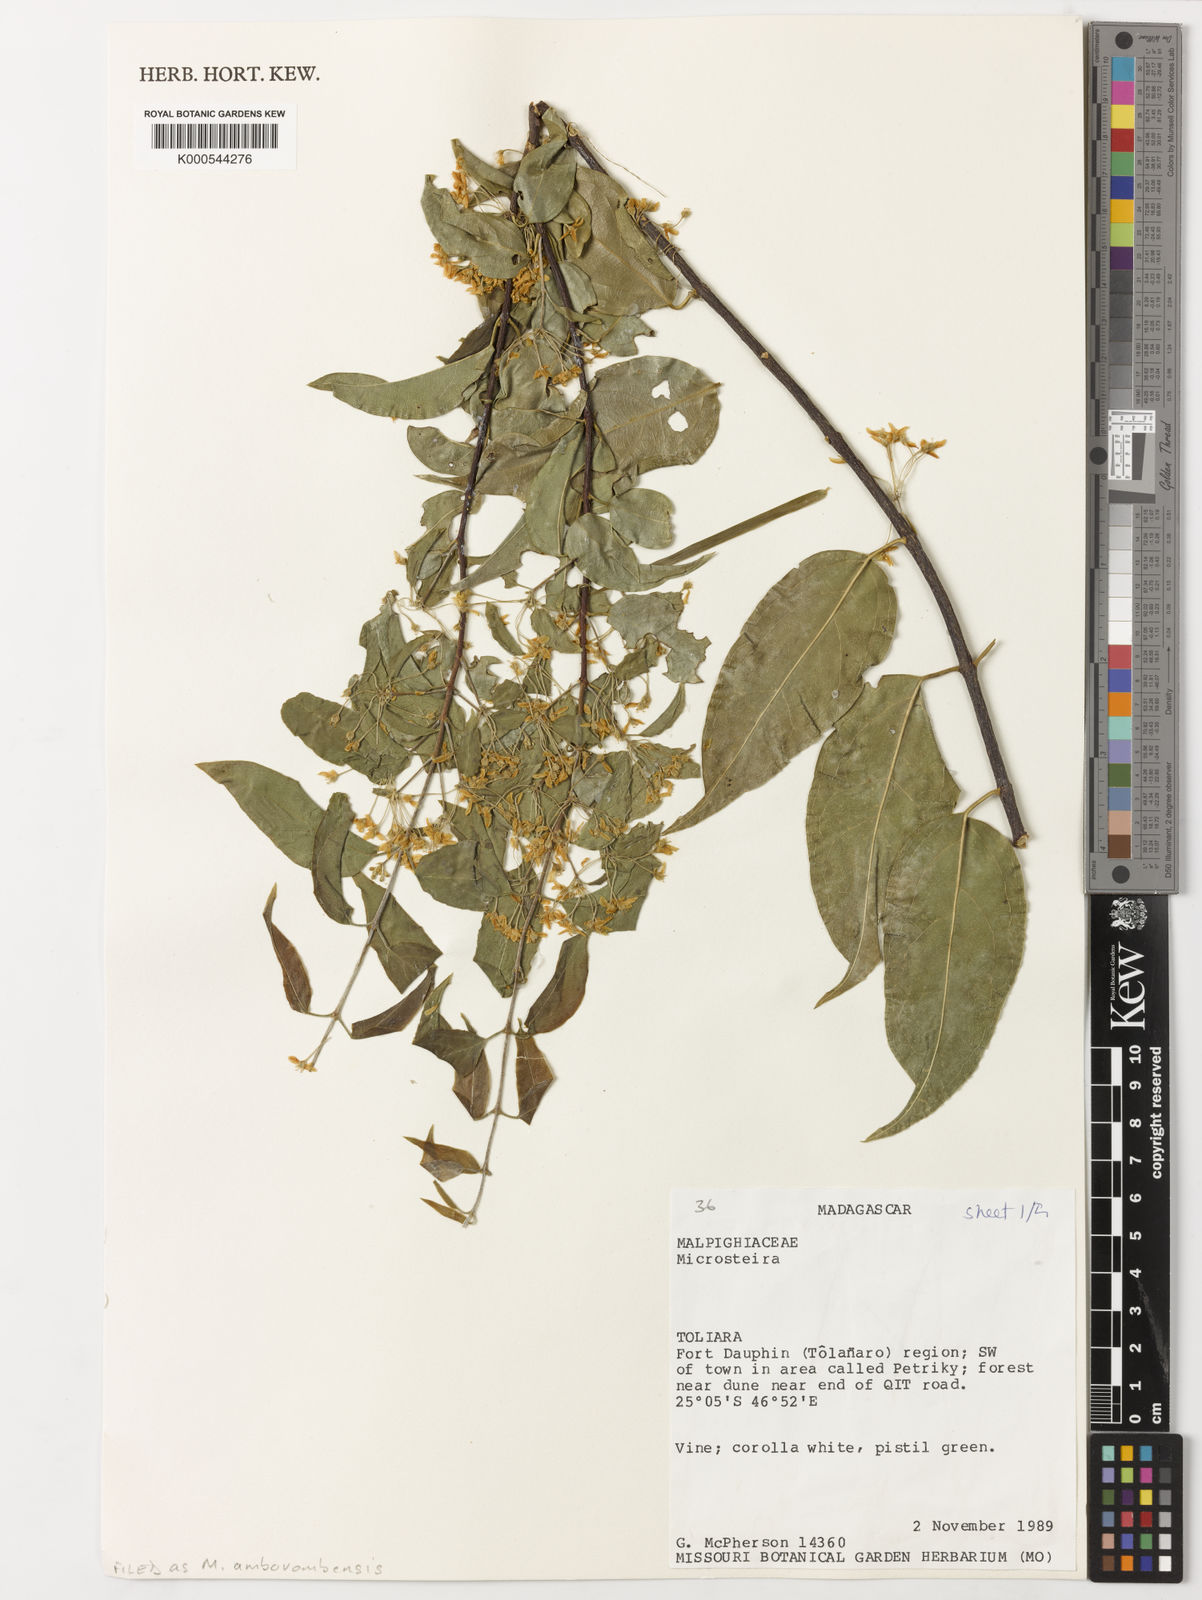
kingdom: Plantae
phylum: Tracheophyta
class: Magnoliopsida
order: Malpighiales
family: Malpighiaceae
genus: Microsteira
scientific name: Microsteira
